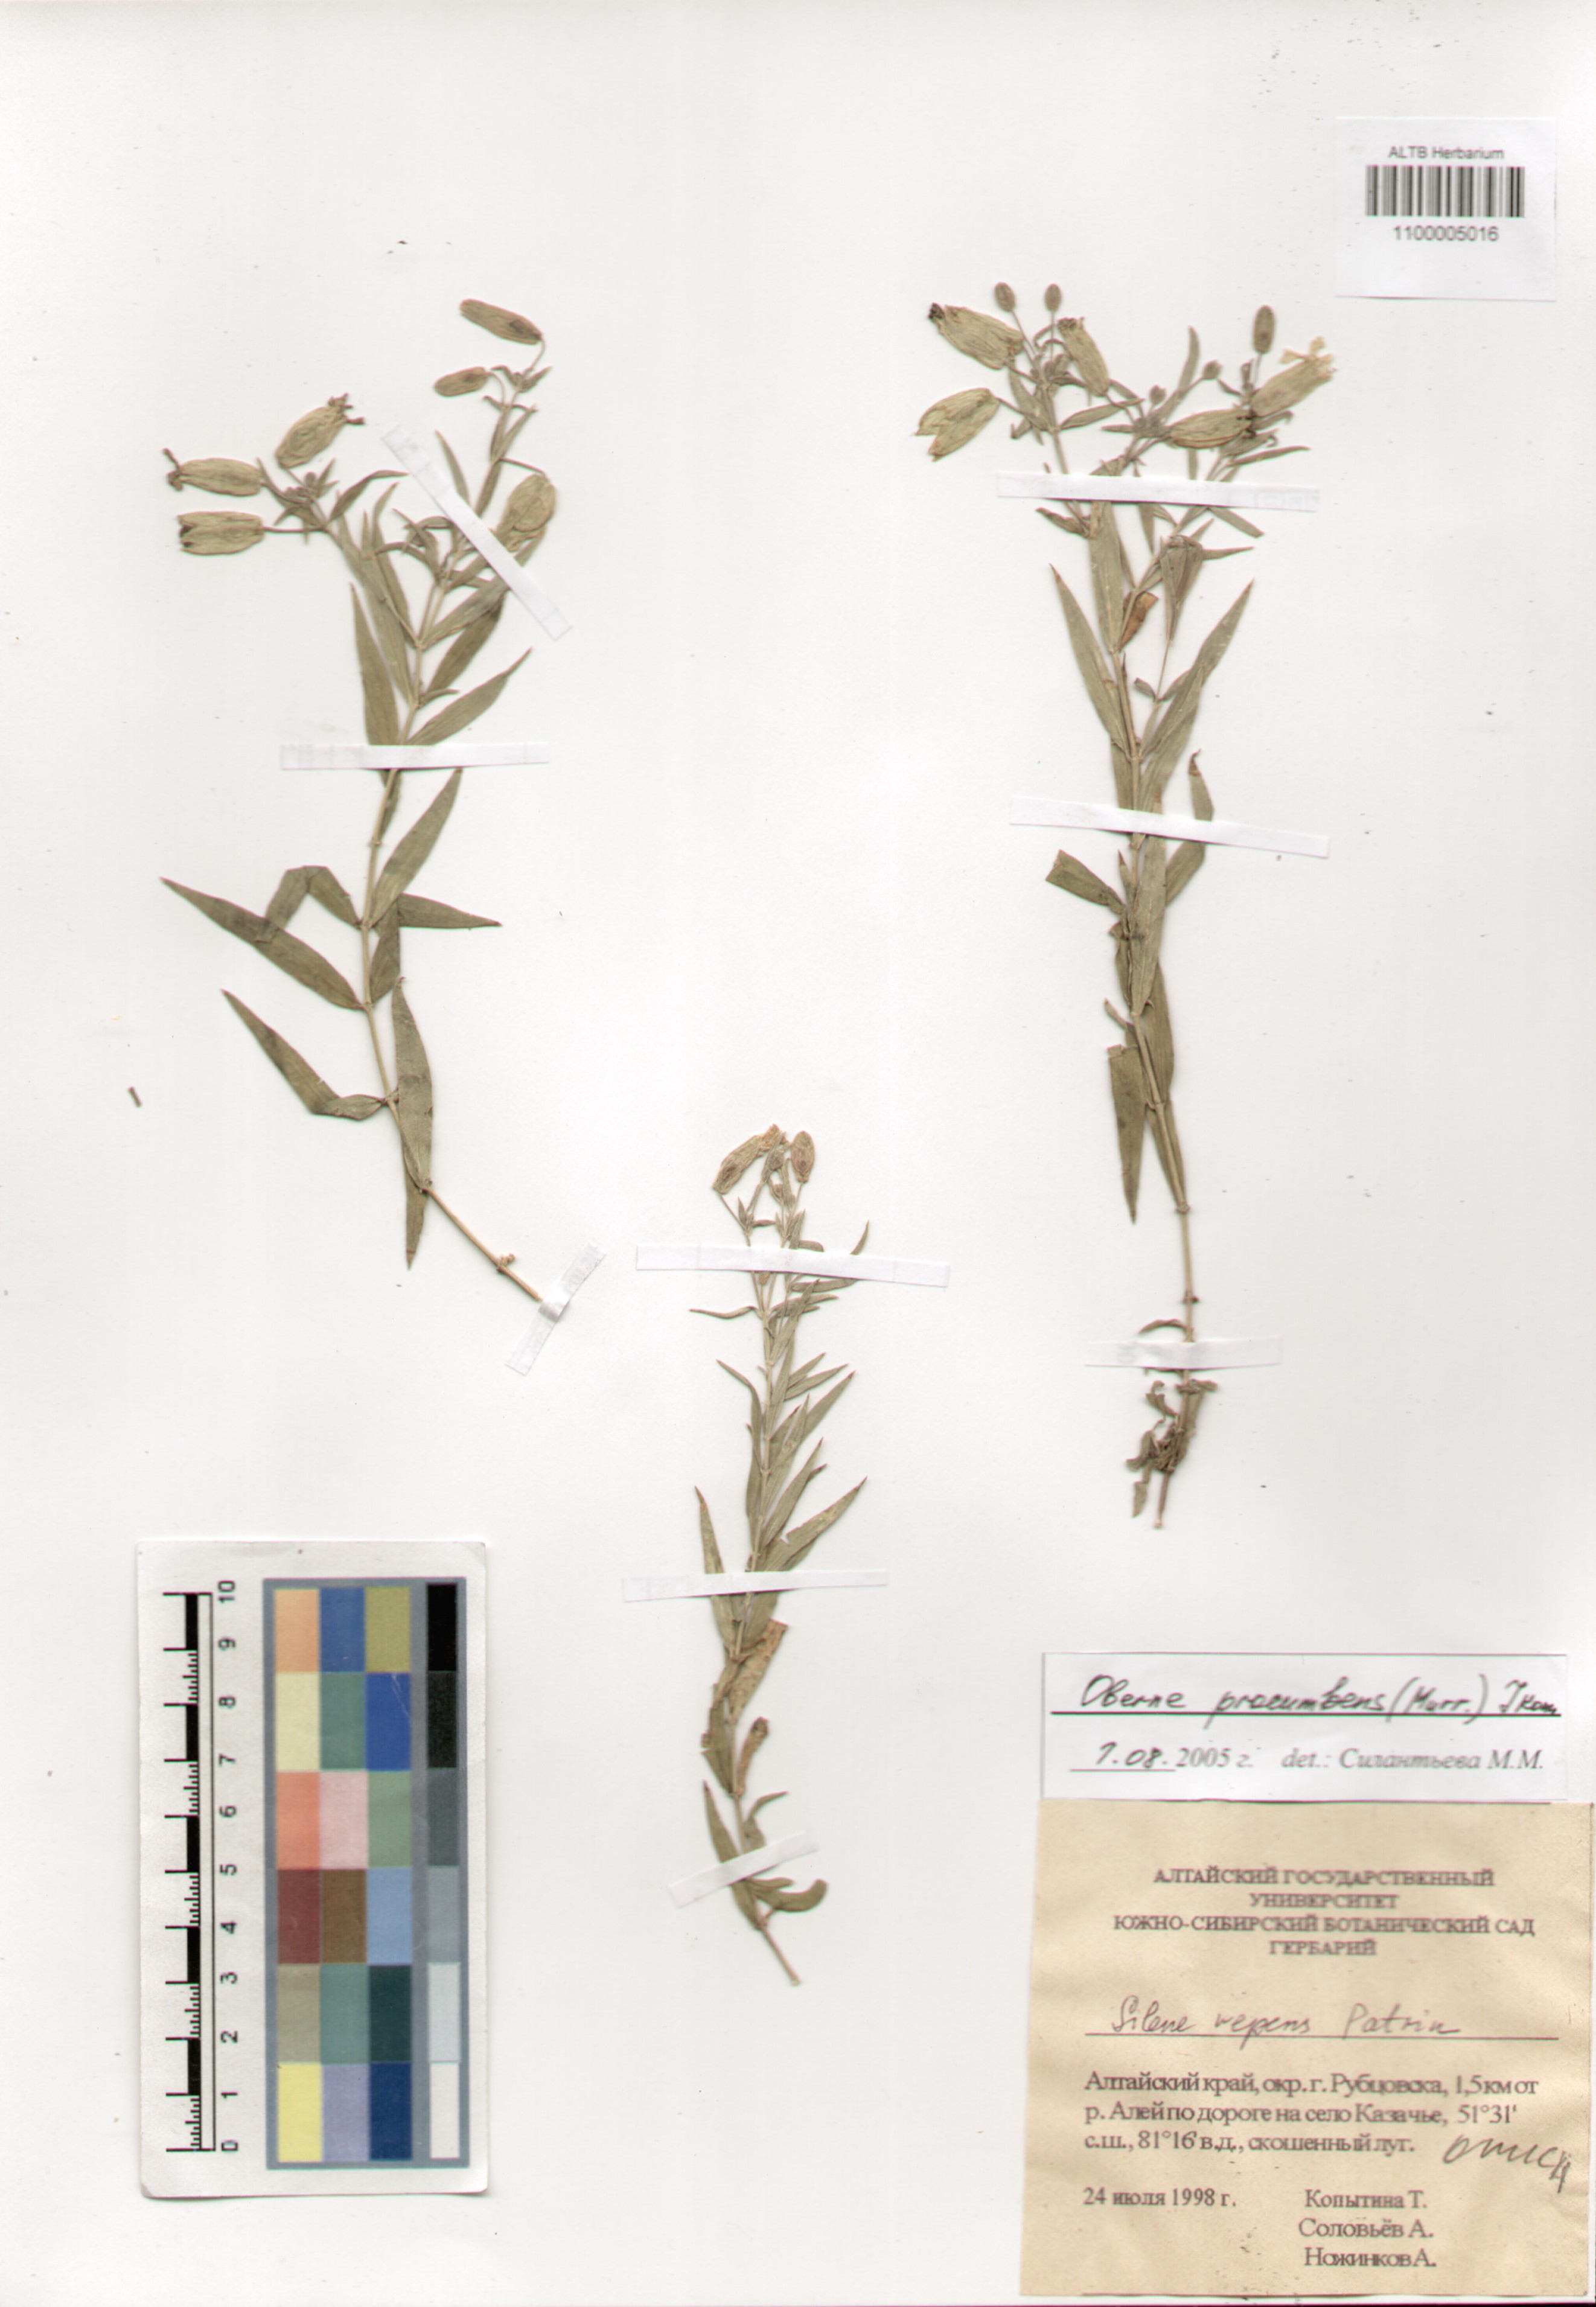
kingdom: Plantae
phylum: Tracheophyta
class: Magnoliopsida
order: Caryophyllales
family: Caryophyllaceae
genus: Silene
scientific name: Silene procumbens
